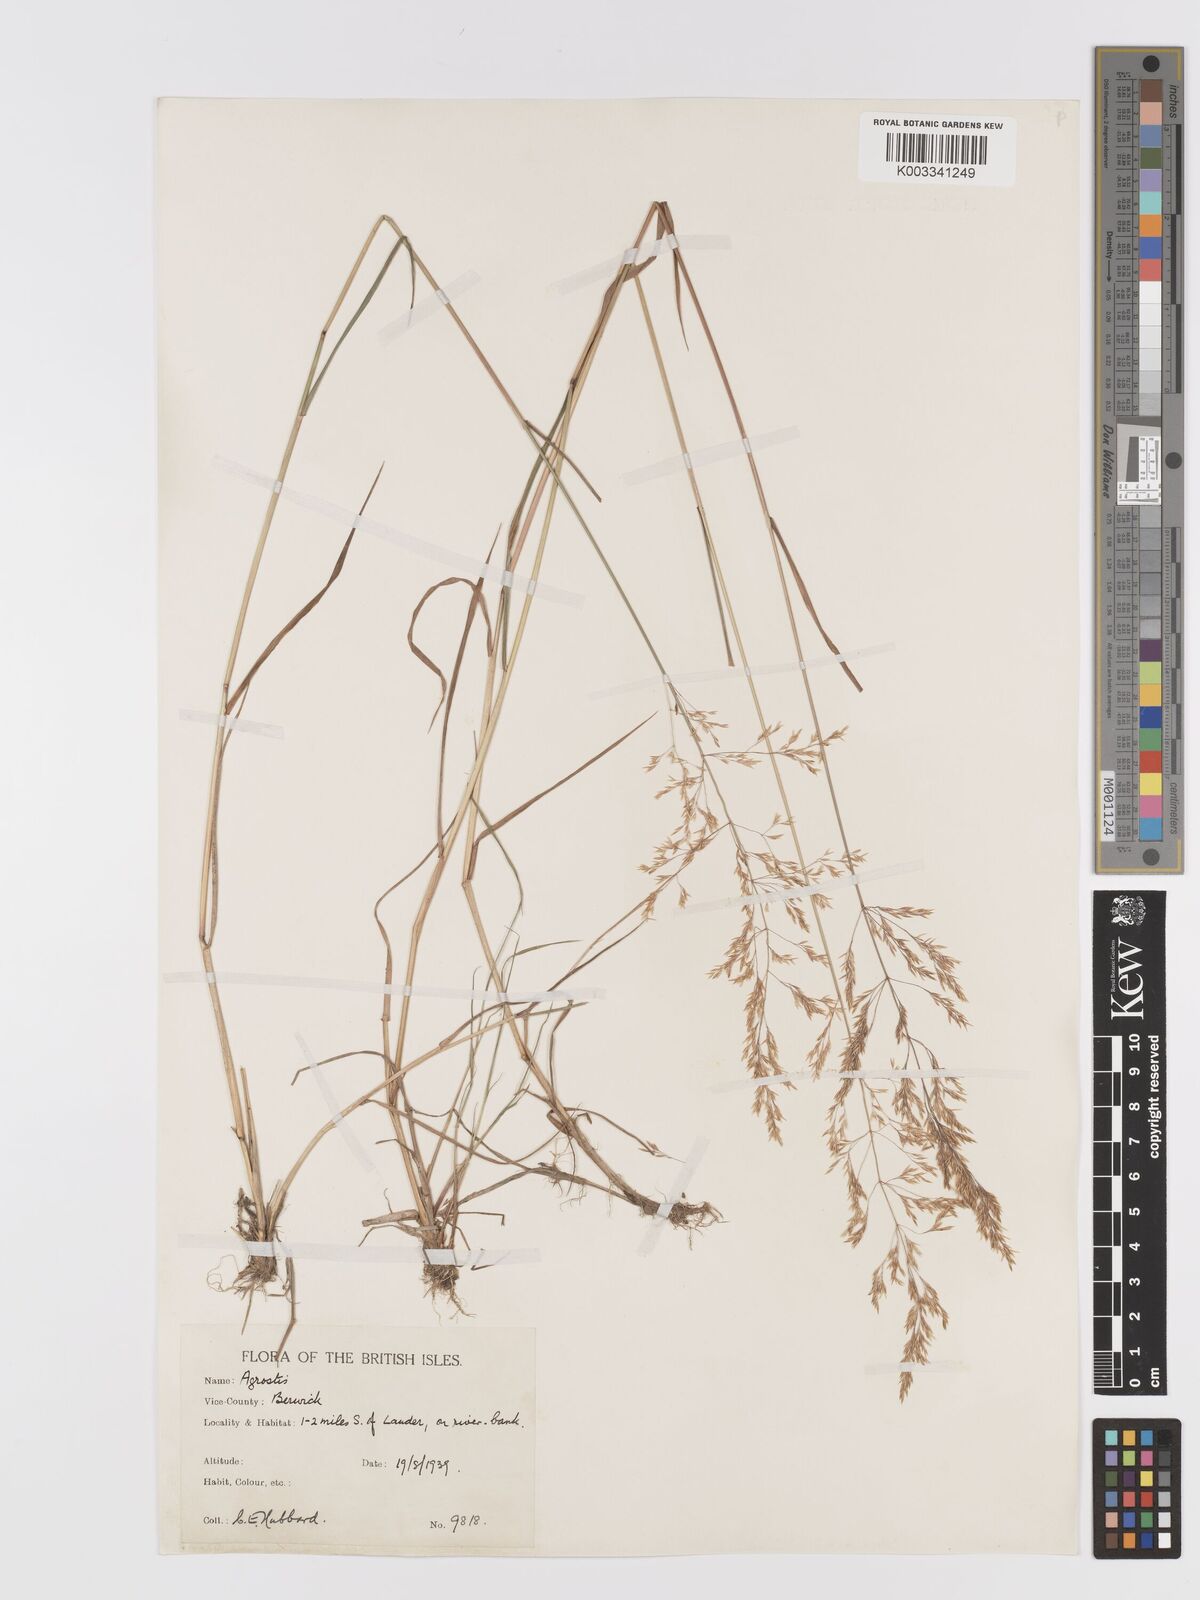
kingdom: Plantae
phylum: Tracheophyta
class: Liliopsida
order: Poales
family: Poaceae
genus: Agrostis
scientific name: Agrostis gigantea
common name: Black bent
